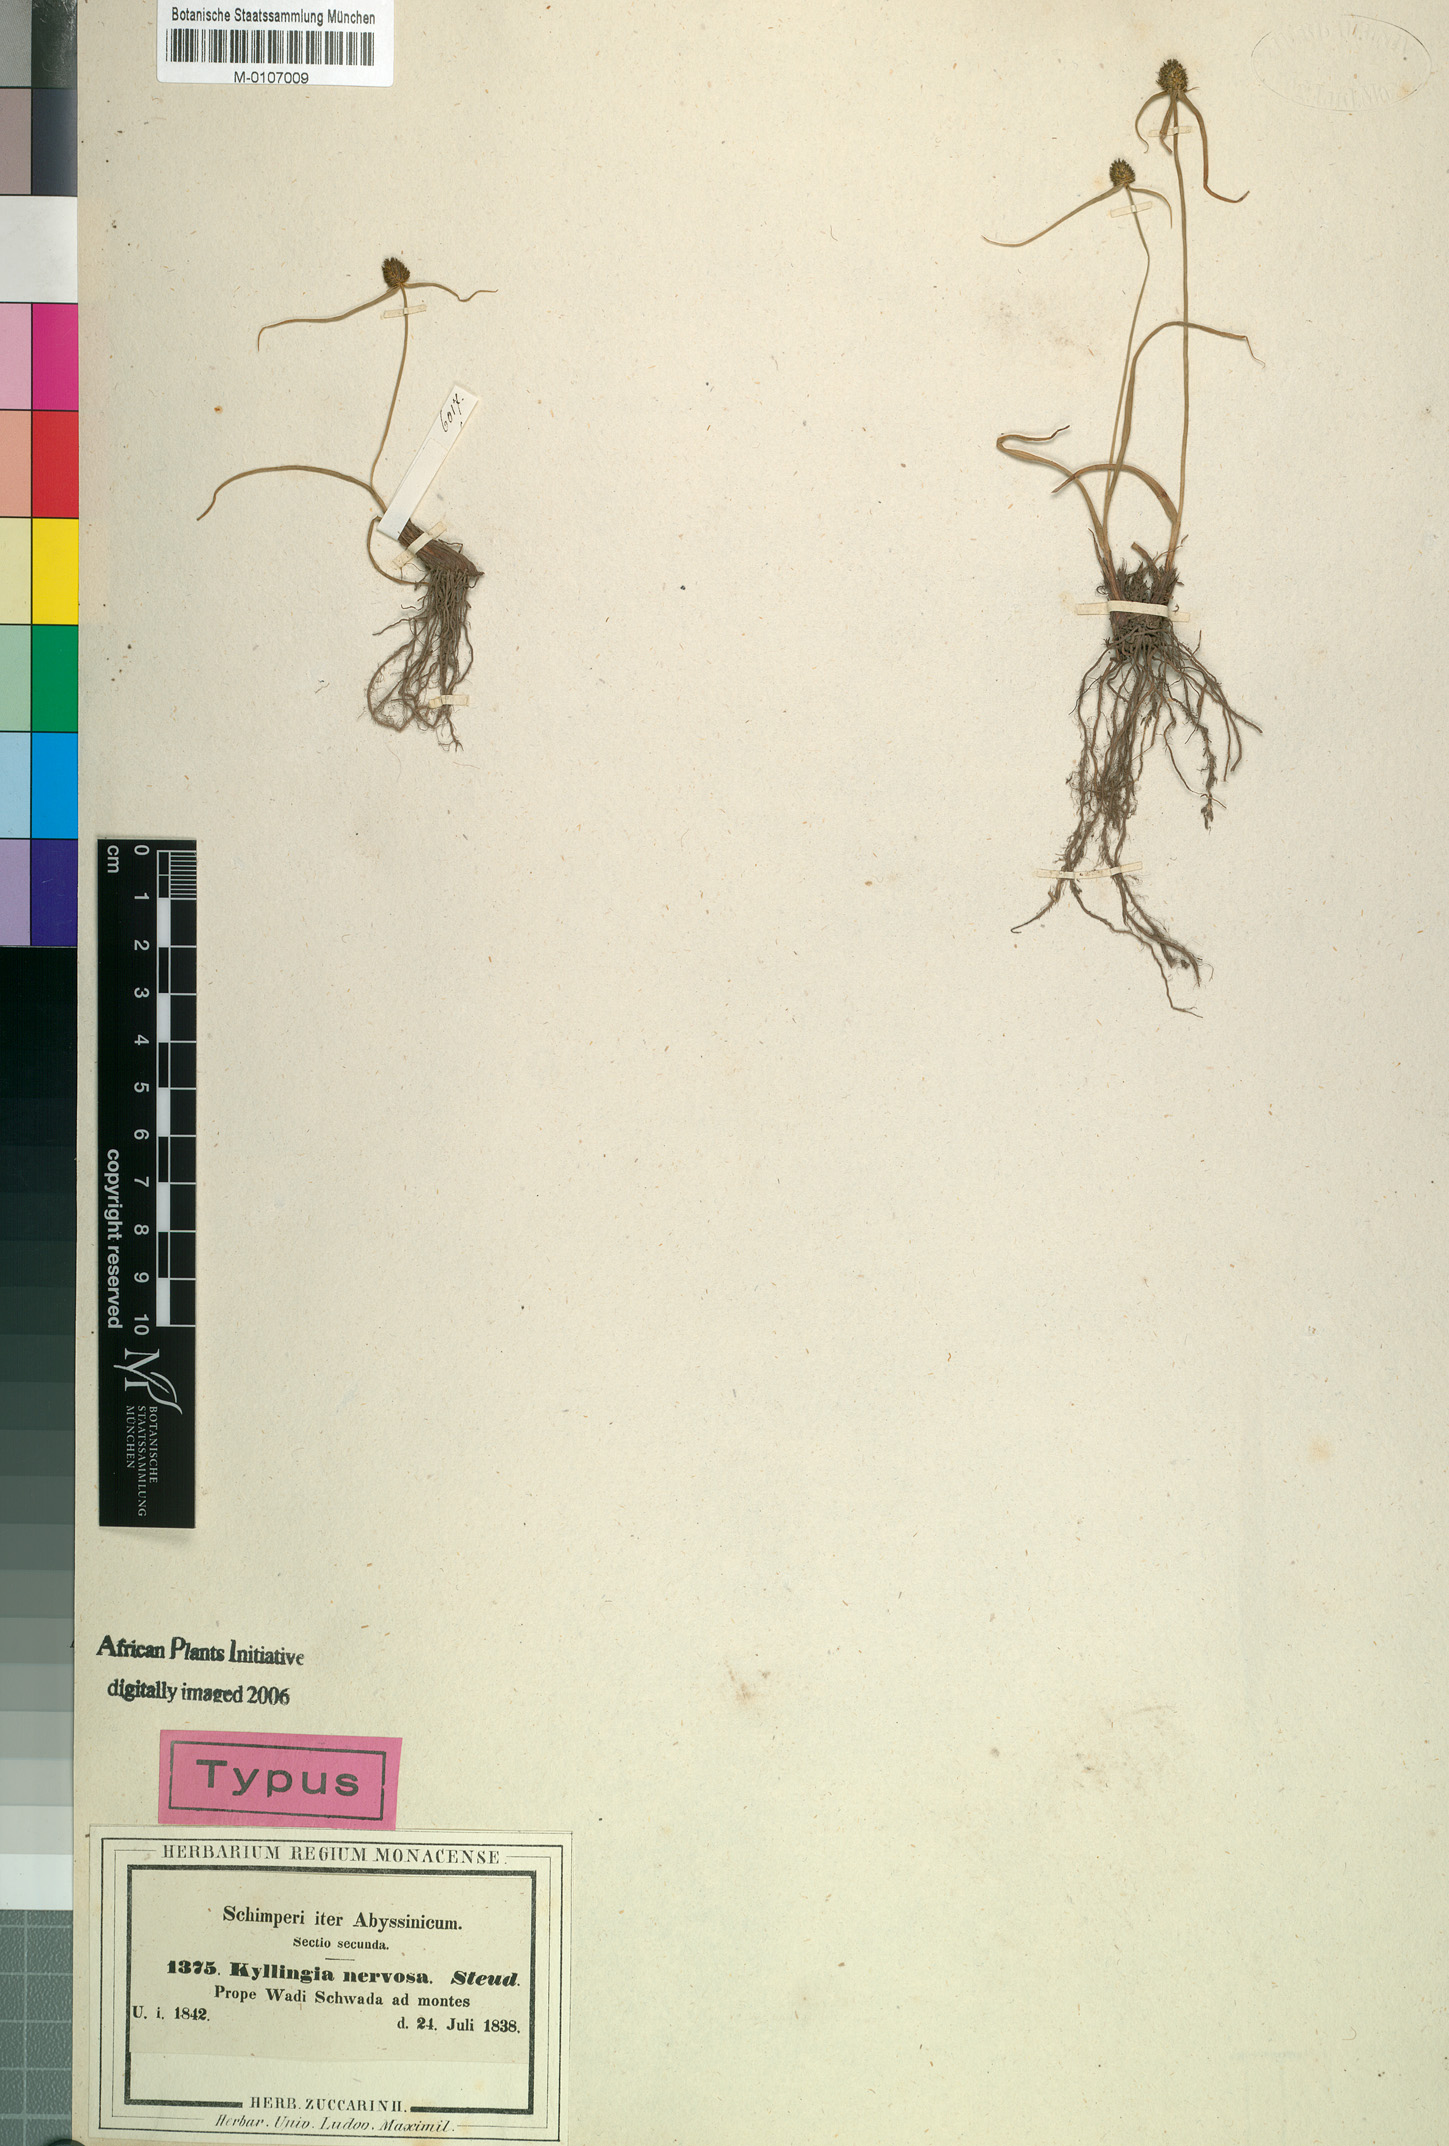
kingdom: Plantae
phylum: Tracheophyta
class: Liliopsida
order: Poales
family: Cyperaceae
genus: Cyperus
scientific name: Cyperus costatus
